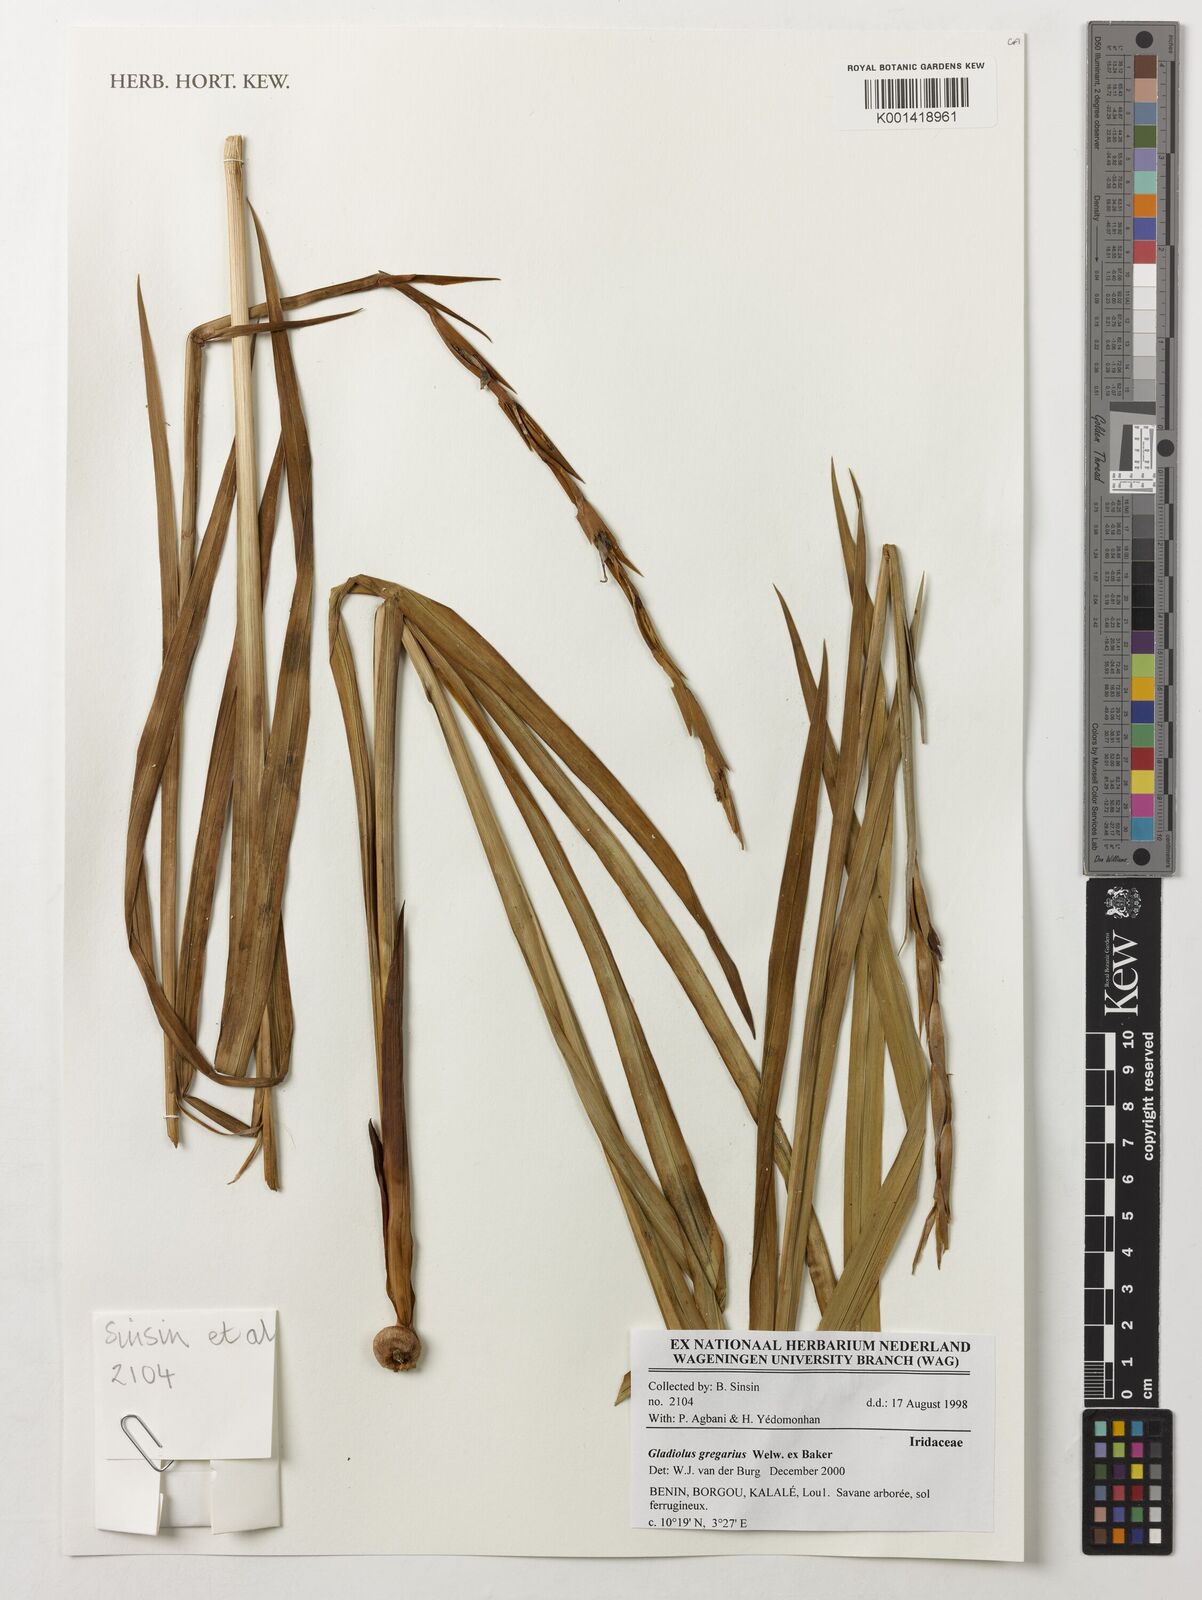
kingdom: Plantae
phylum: Tracheophyta
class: Liliopsida
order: Asparagales
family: Iridaceae
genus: Gladiolus
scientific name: Gladiolus gregarius
